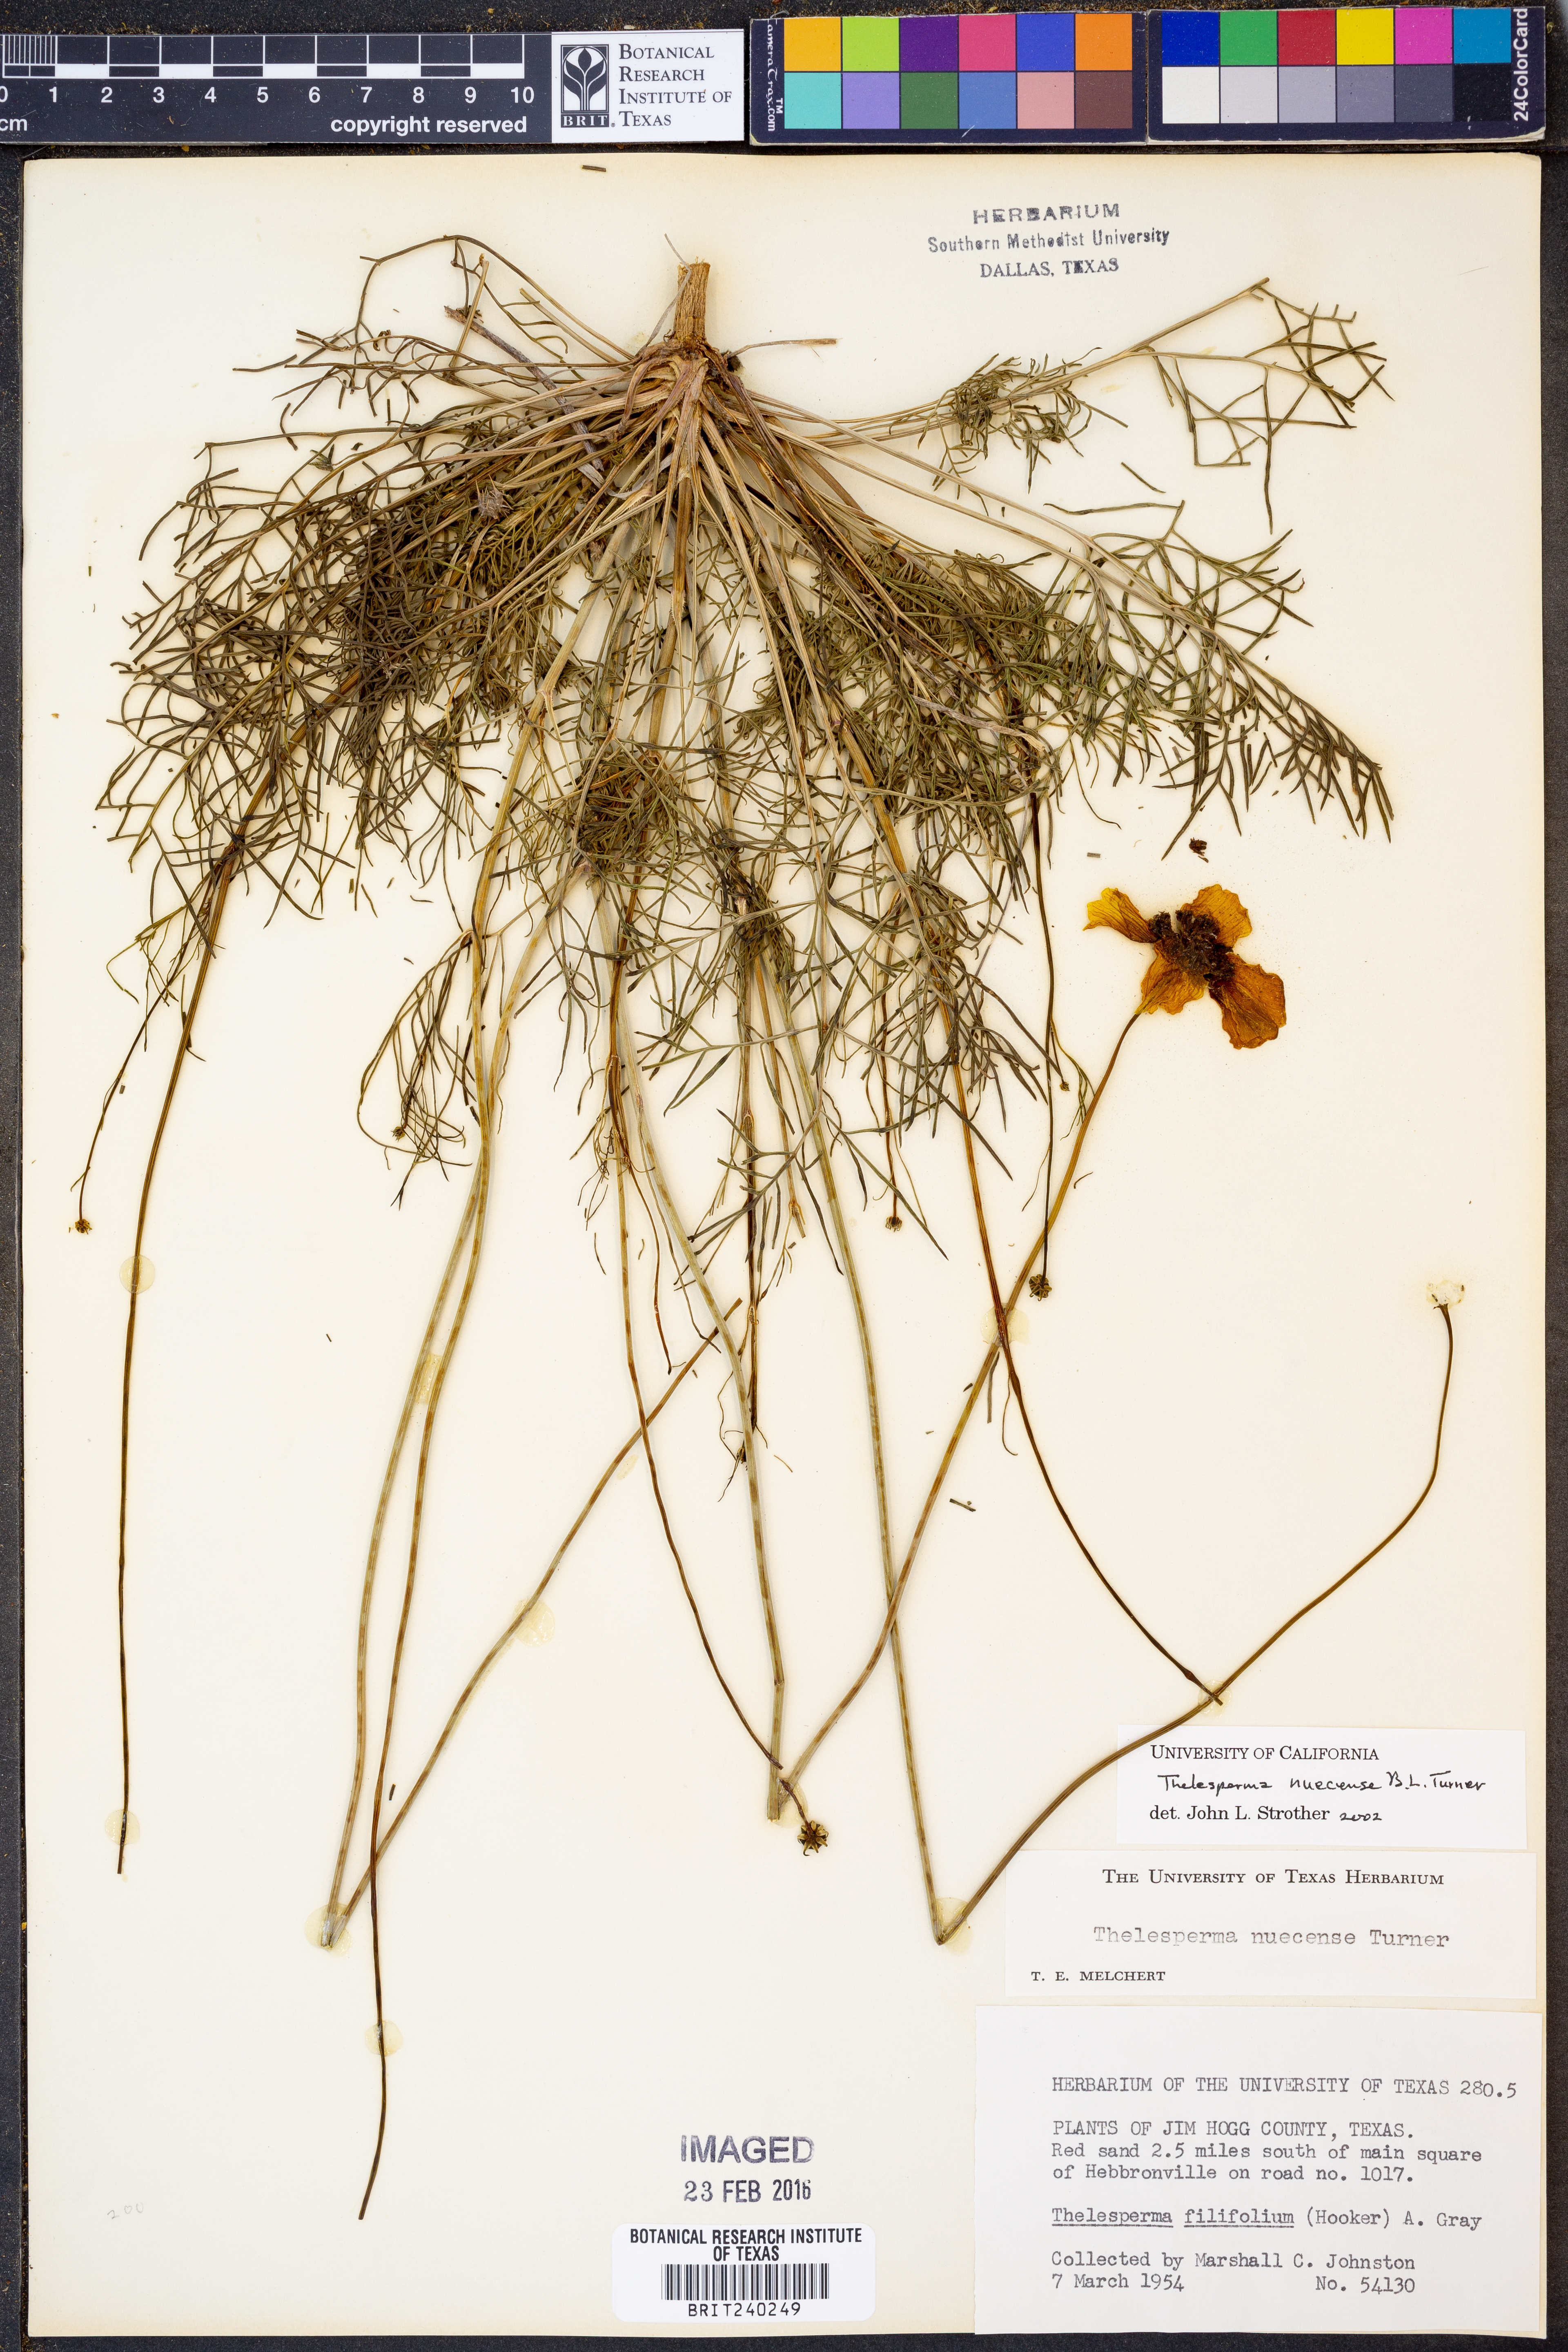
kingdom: Plantae
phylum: Tracheophyta
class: Magnoliopsida
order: Asterales
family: Asteraceae
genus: Thelesperma
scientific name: Thelesperma nuecense
